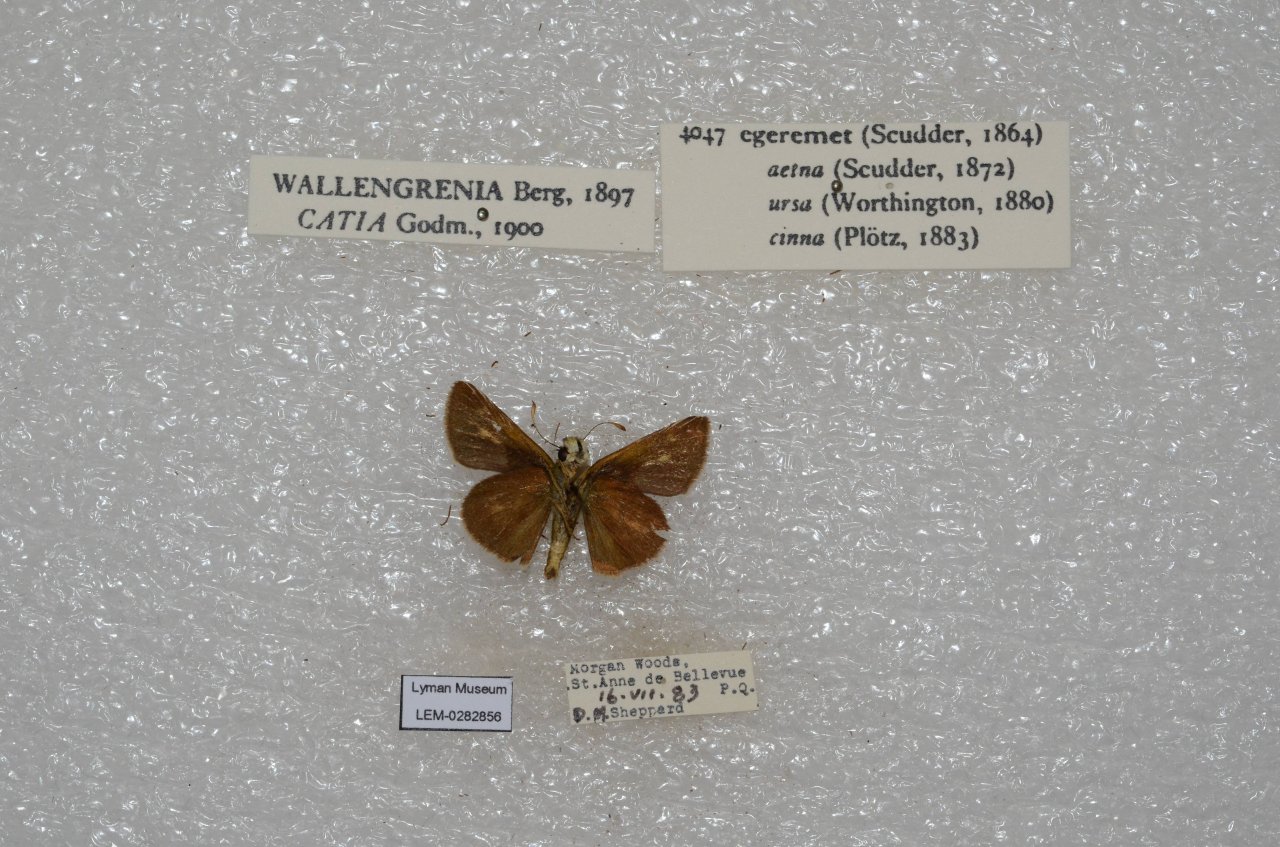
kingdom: Animalia
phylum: Arthropoda
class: Insecta
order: Lepidoptera
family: Hesperiidae
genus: Polites
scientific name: Polites egeremet
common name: Northern Broken-Dash
